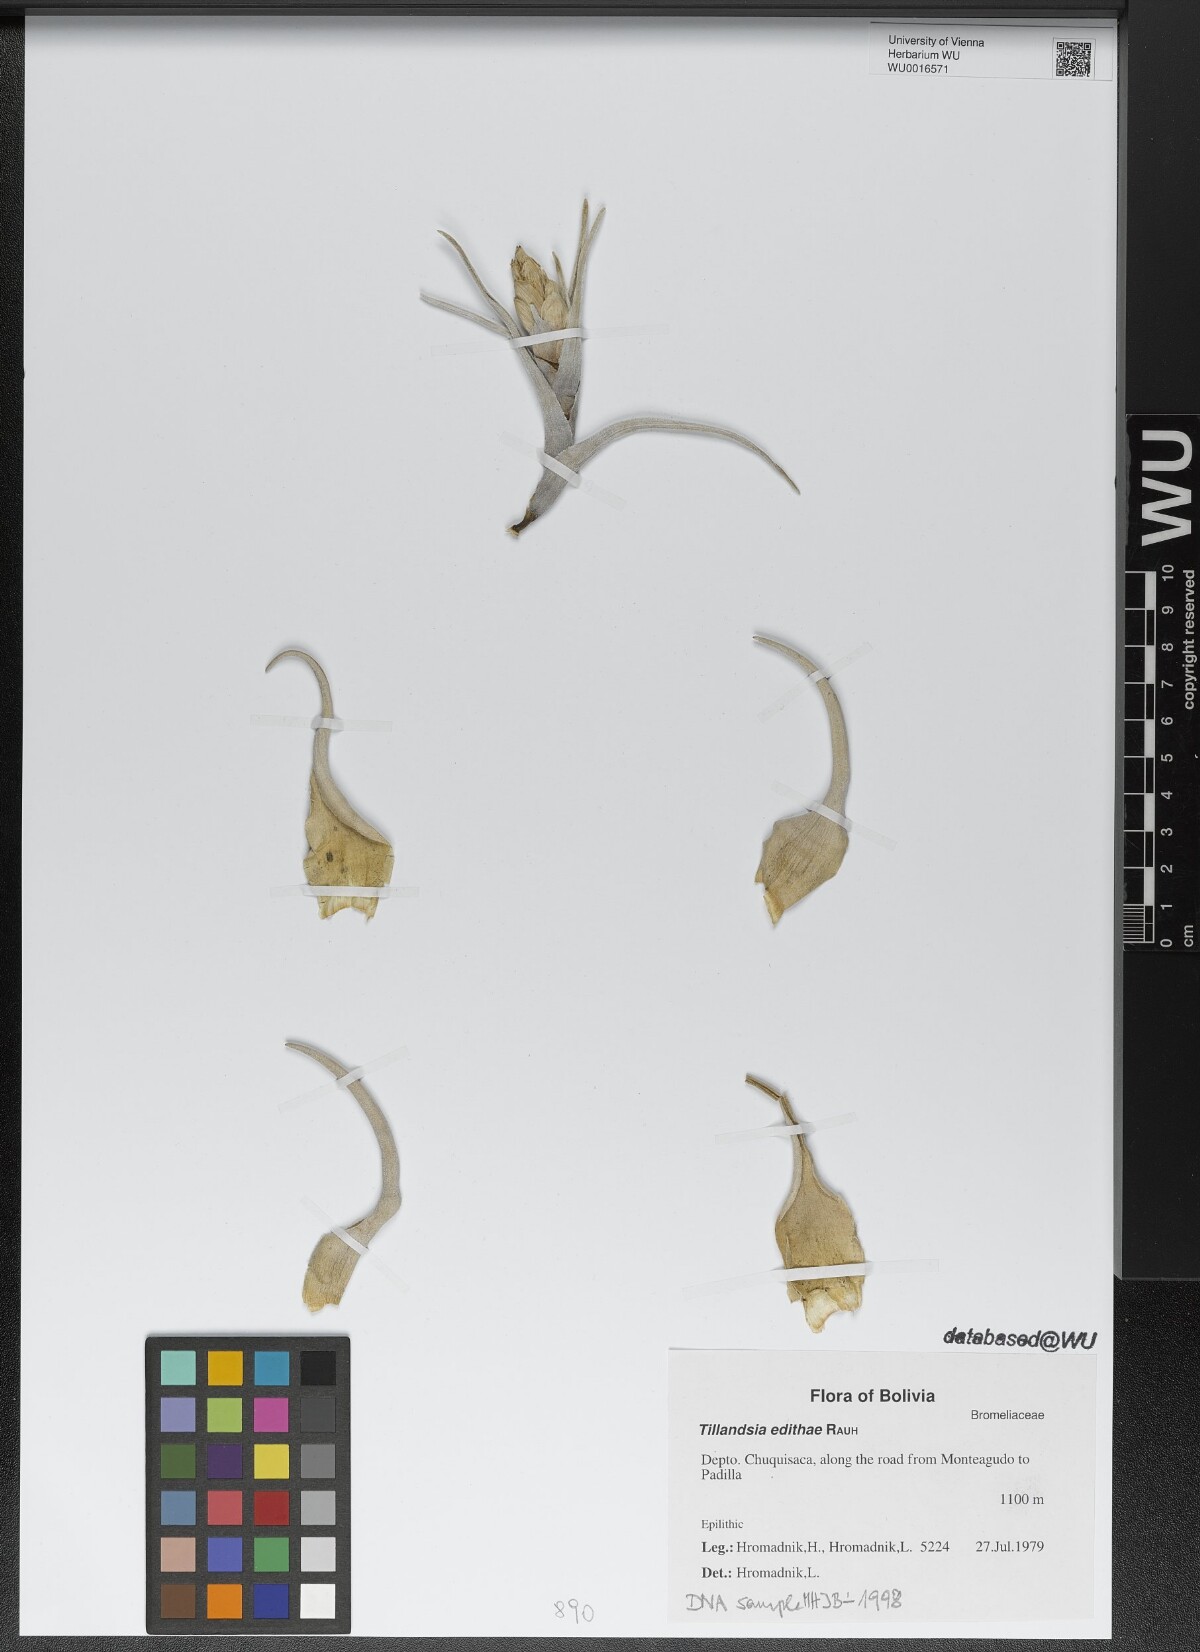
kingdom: Plantae
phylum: Tracheophyta
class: Liliopsida
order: Poales
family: Bromeliaceae
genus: Tillandsia
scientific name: Tillandsia edithae
